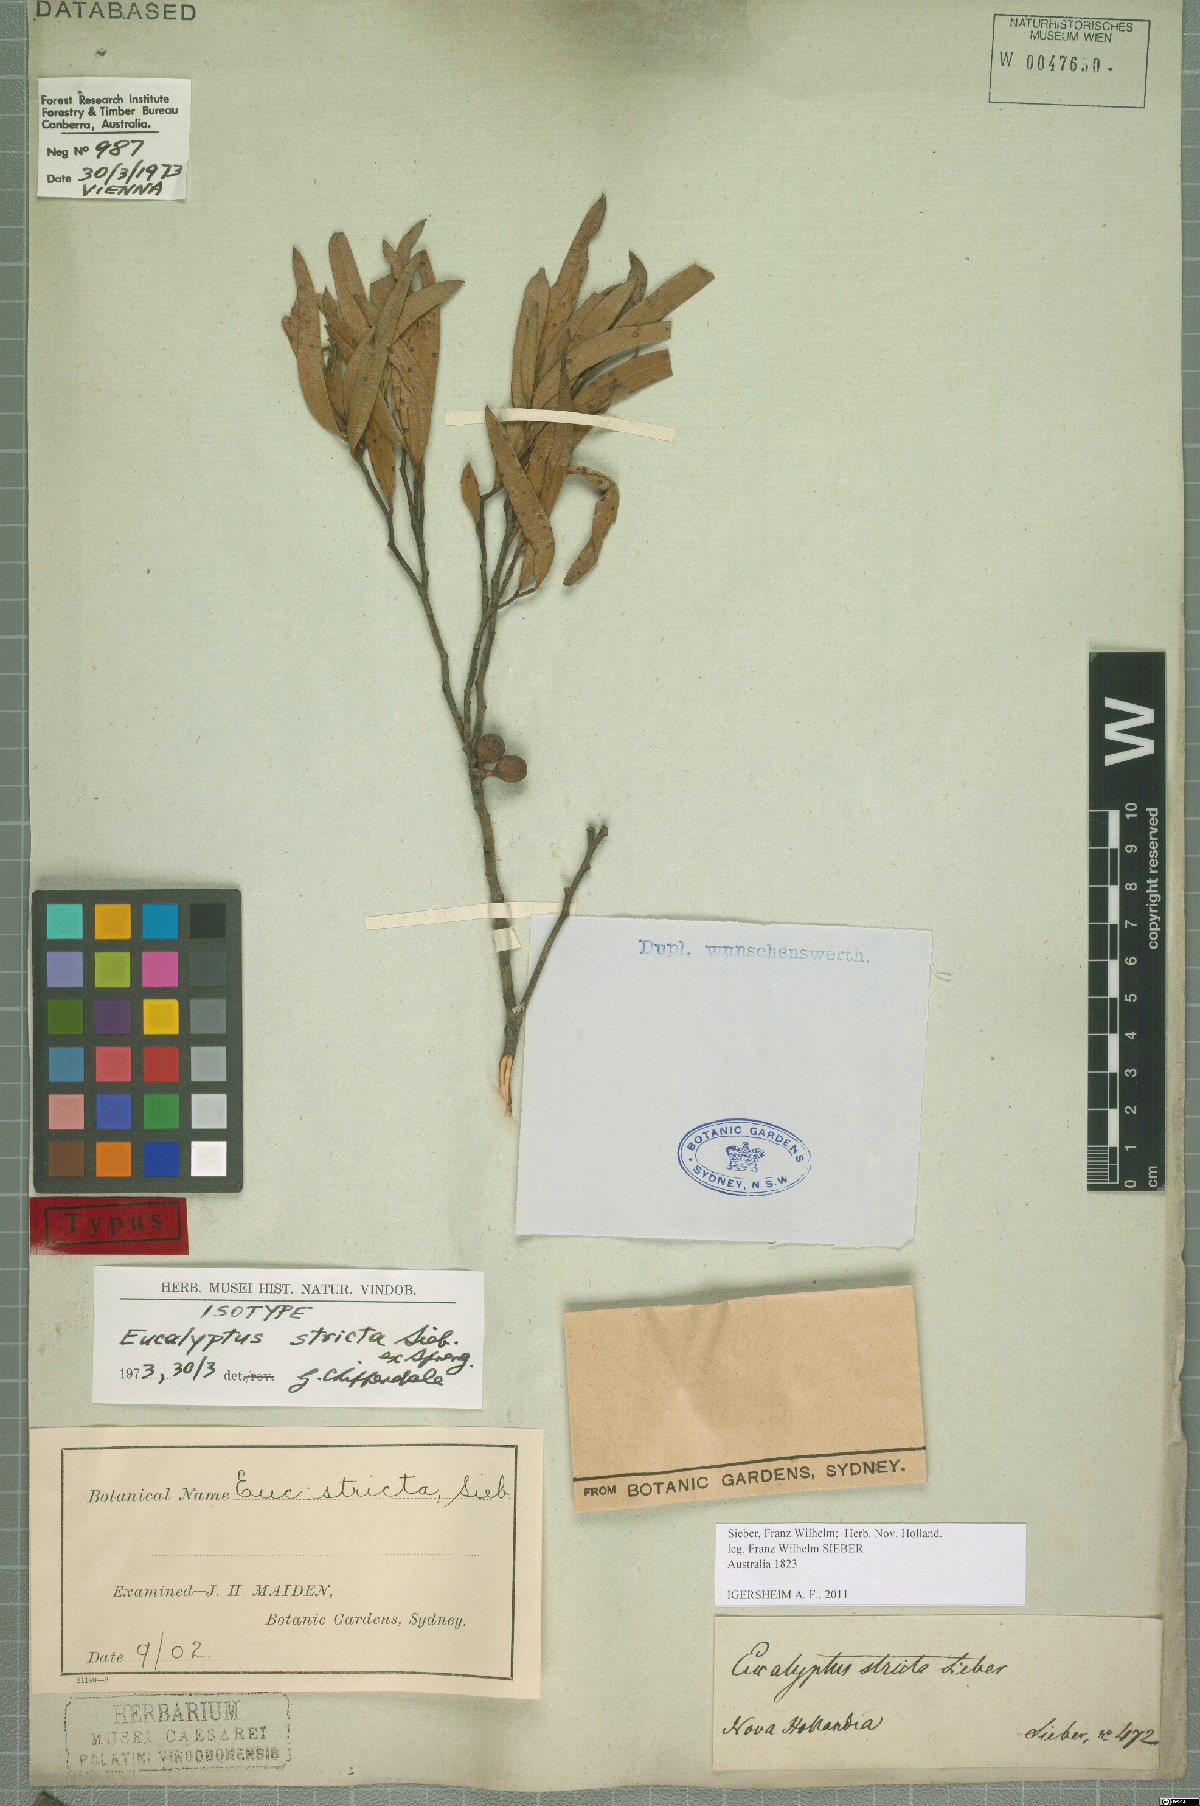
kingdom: Plantae
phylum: Tracheophyta
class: Magnoliopsida
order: Myrtales
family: Myrtaceae
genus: Eucalyptus
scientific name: Eucalyptus stricta
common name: Blue-mountain-malle-ash
